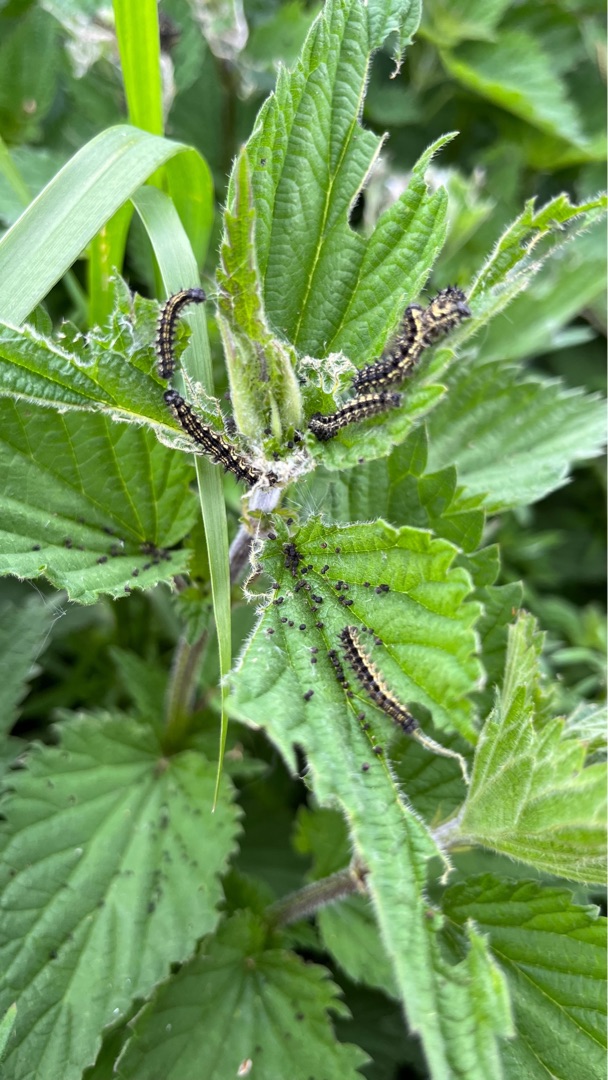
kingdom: Animalia
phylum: Arthropoda
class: Insecta
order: Lepidoptera
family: Nymphalidae
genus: Aglais
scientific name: Aglais urticae
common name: Nældens takvinge
